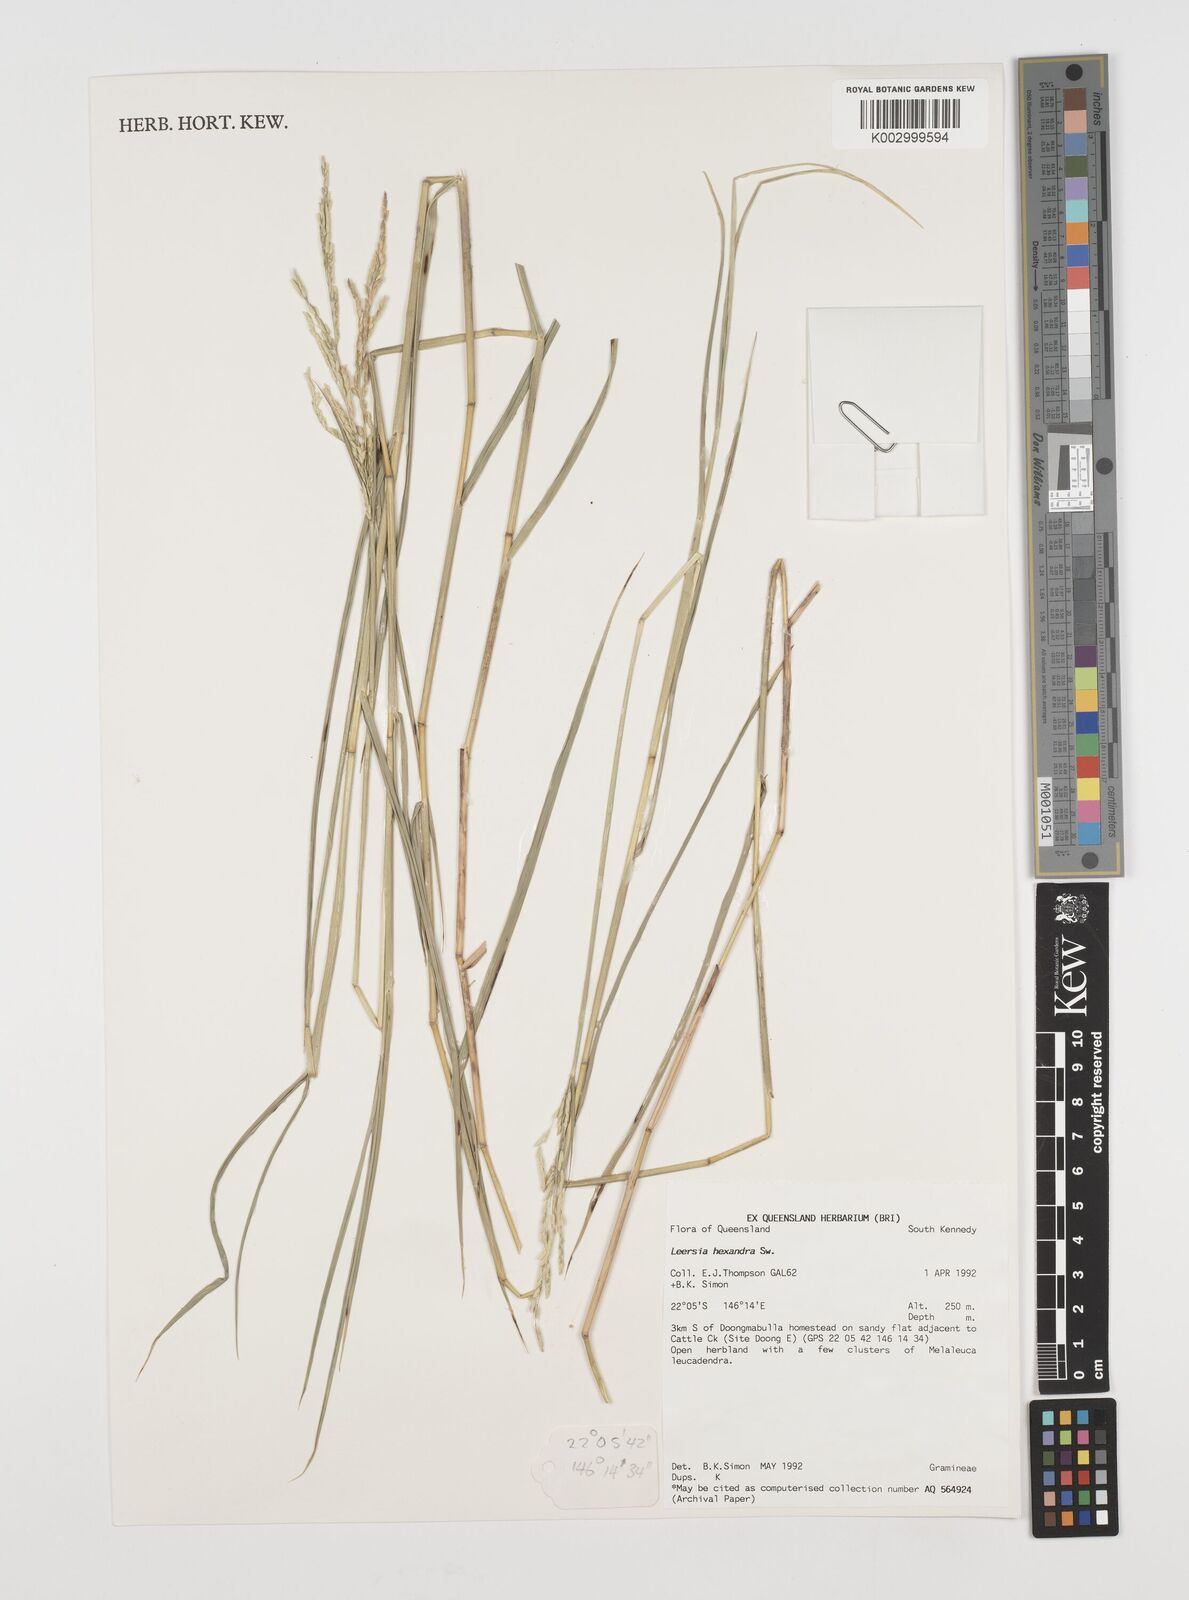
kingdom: Plantae
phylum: Tracheophyta
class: Liliopsida
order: Poales
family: Poaceae
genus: Leersia
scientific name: Leersia hexandra
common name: Southern cut grass
